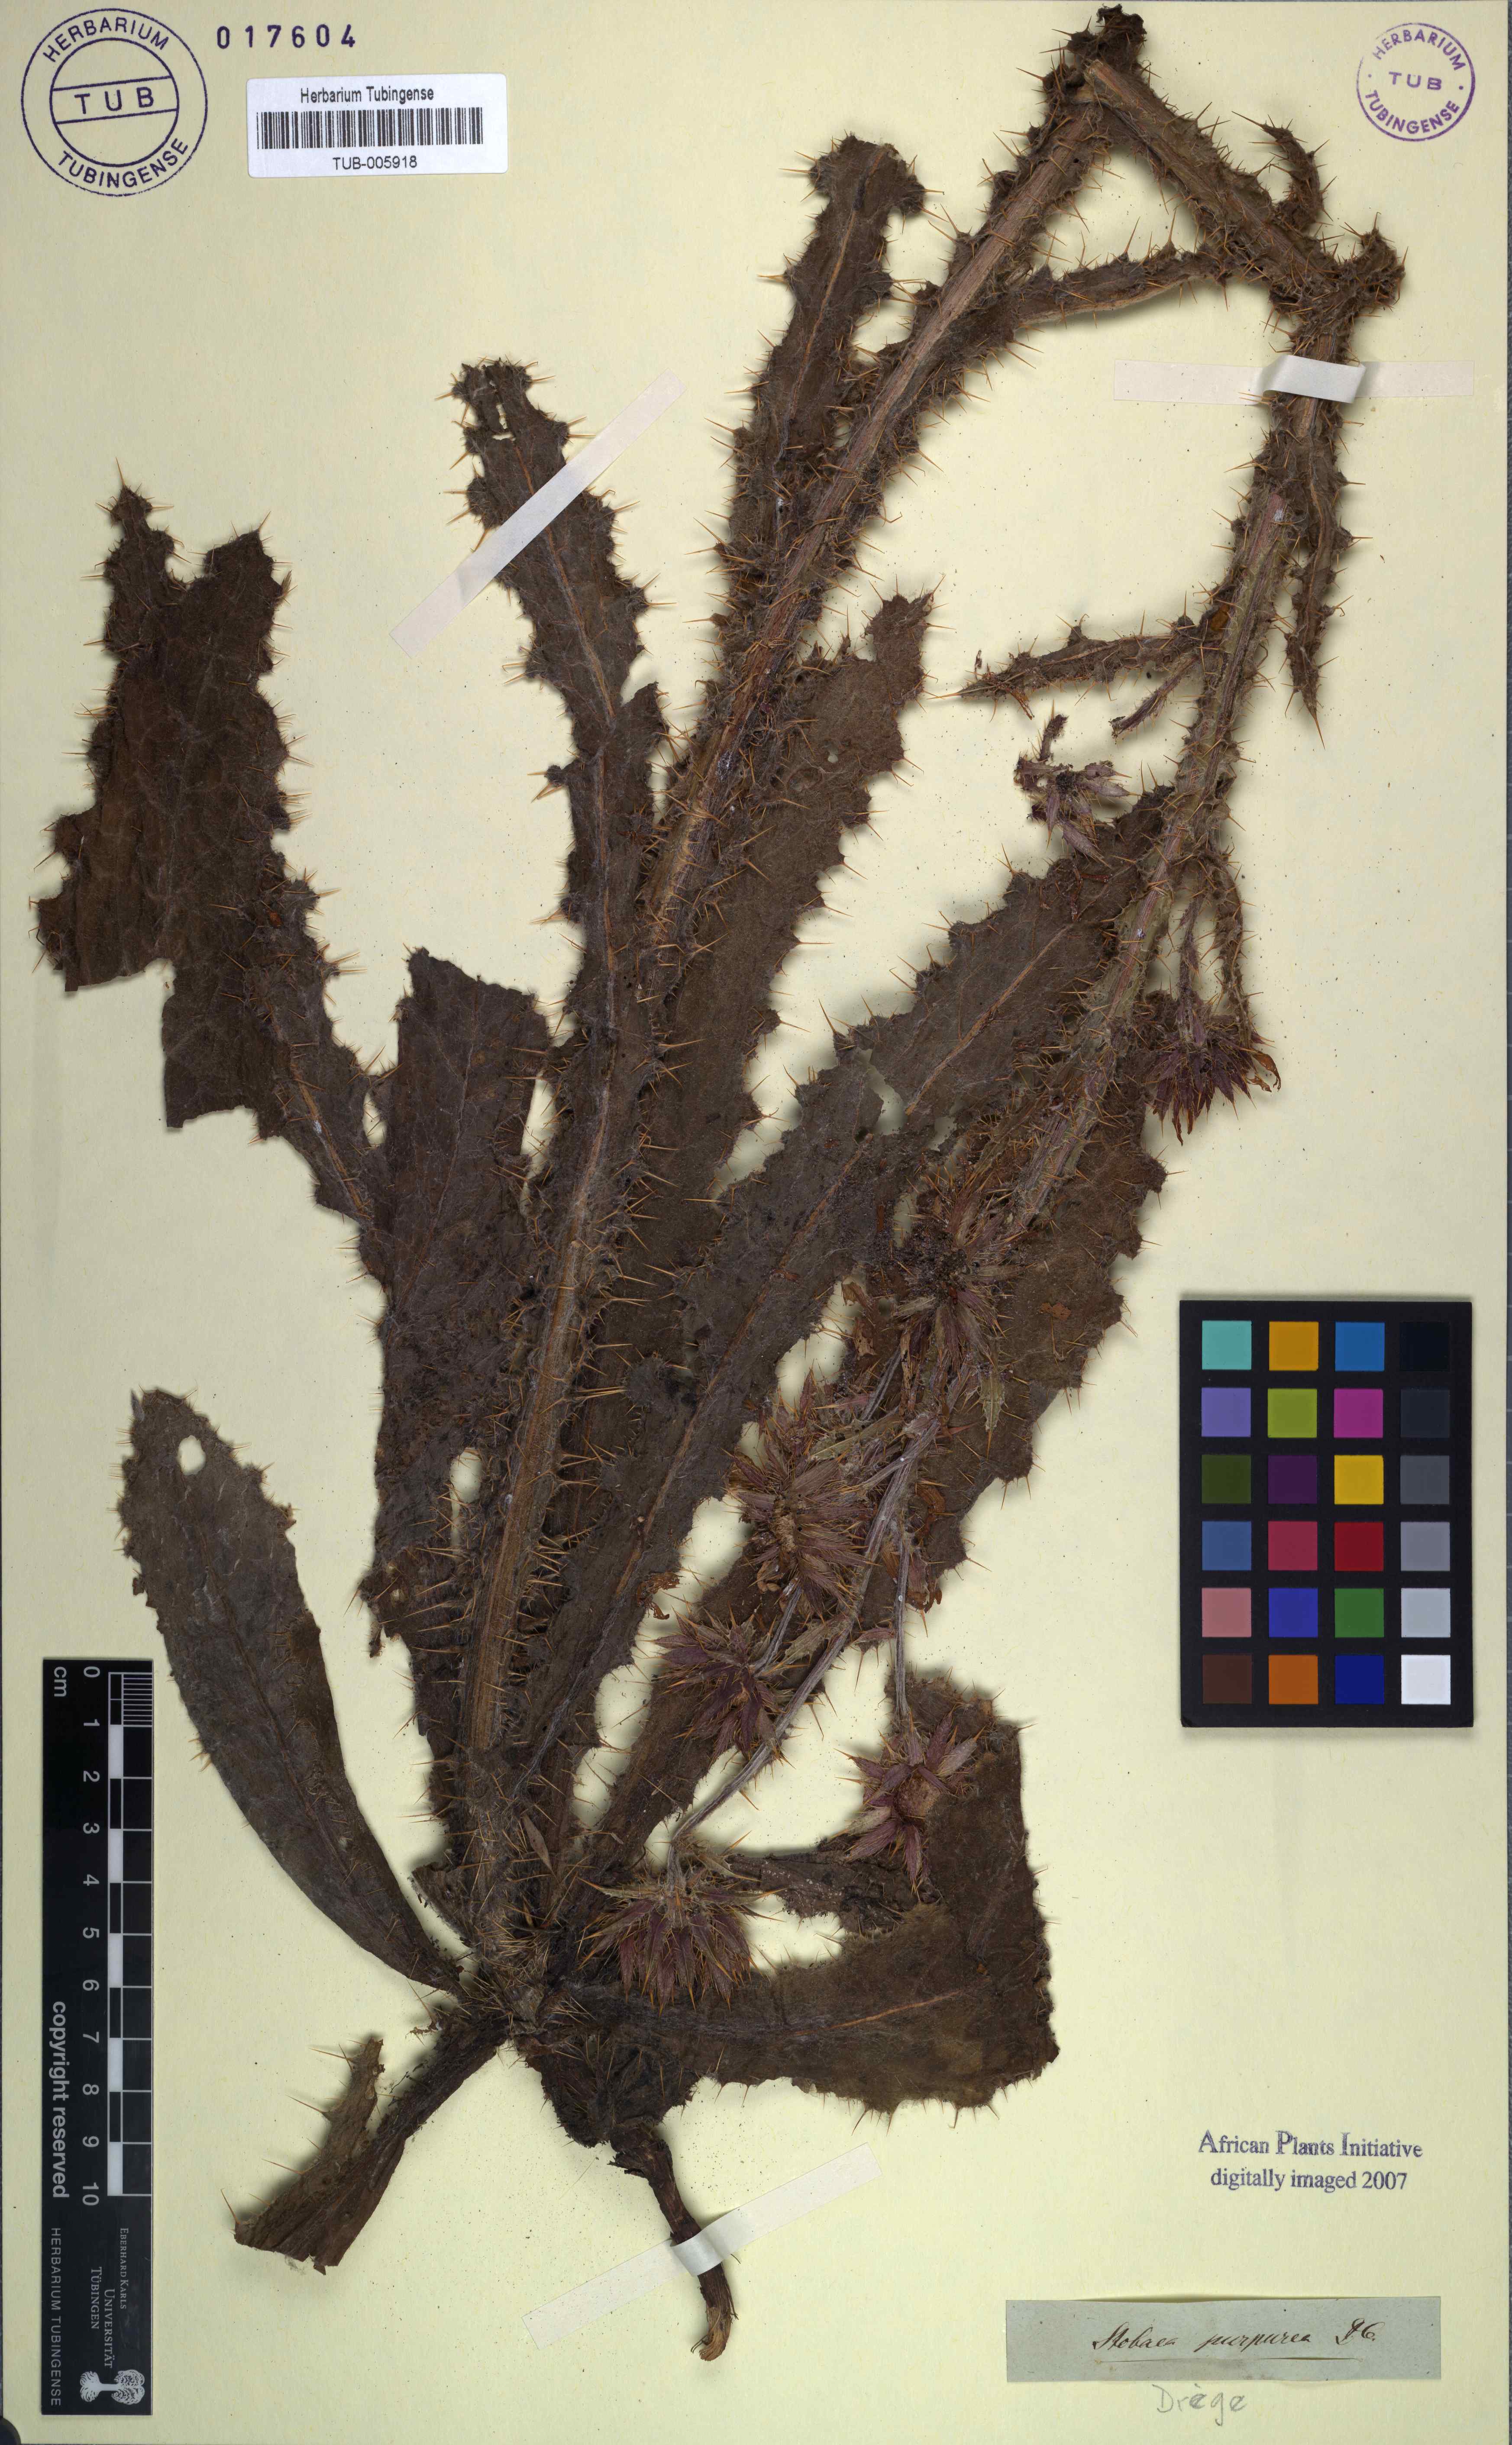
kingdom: Plantae
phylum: Tracheophyta
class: Magnoliopsida
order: Asterales
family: Asteraceae
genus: Berkheya
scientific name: Berkheya purpurea
